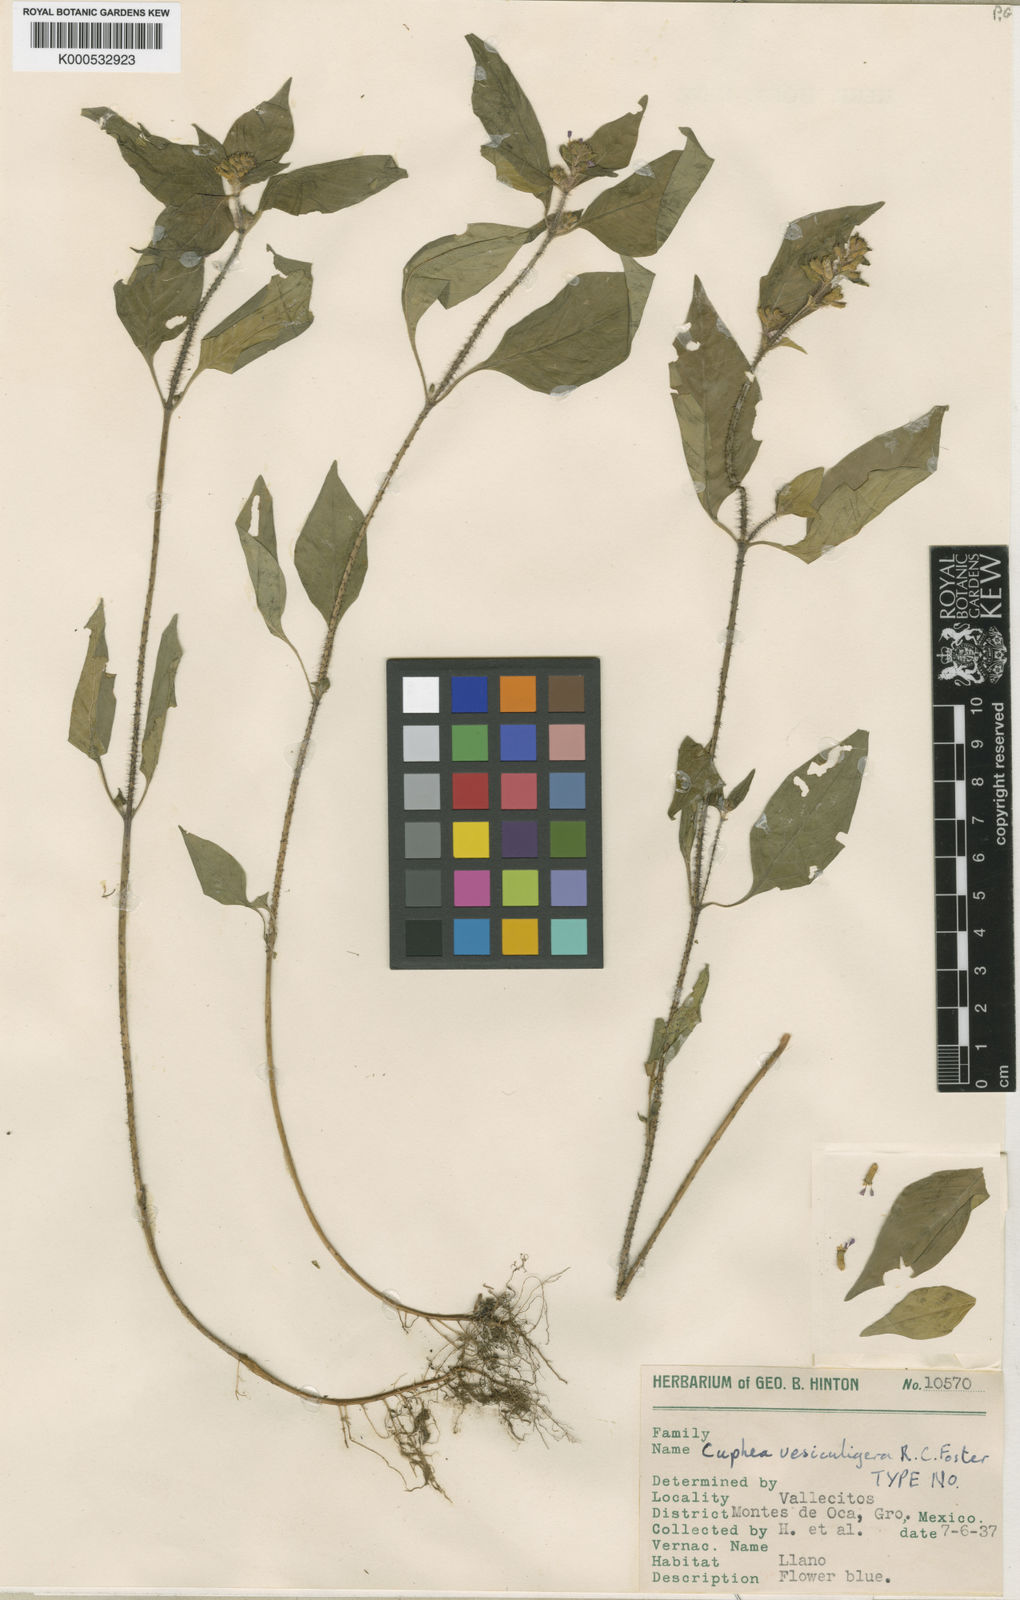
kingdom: Plantae
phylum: Tracheophyta
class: Magnoliopsida
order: Myrtales
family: Lythraceae
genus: Cuphea
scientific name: Cuphea vesiculigera
